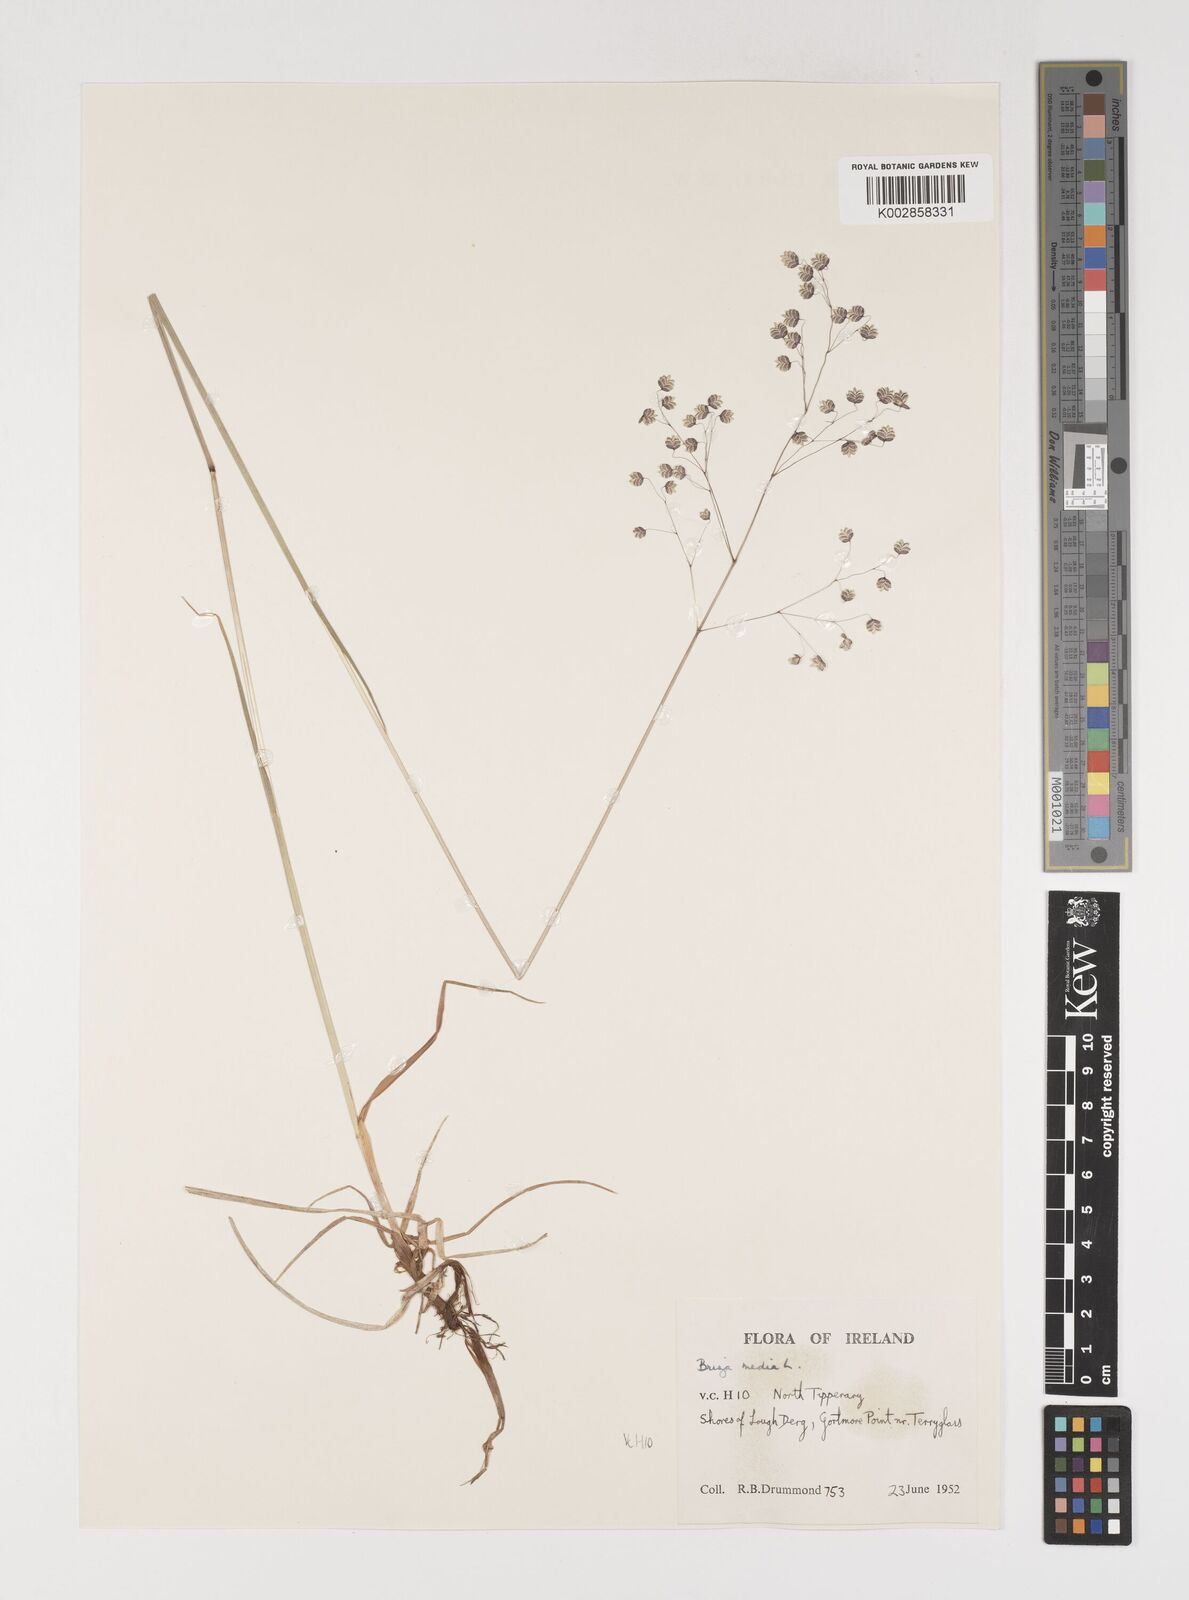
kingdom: Plantae
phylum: Tracheophyta
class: Liliopsida
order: Poales
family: Poaceae
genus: Briza
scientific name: Briza media
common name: Quaking grass
